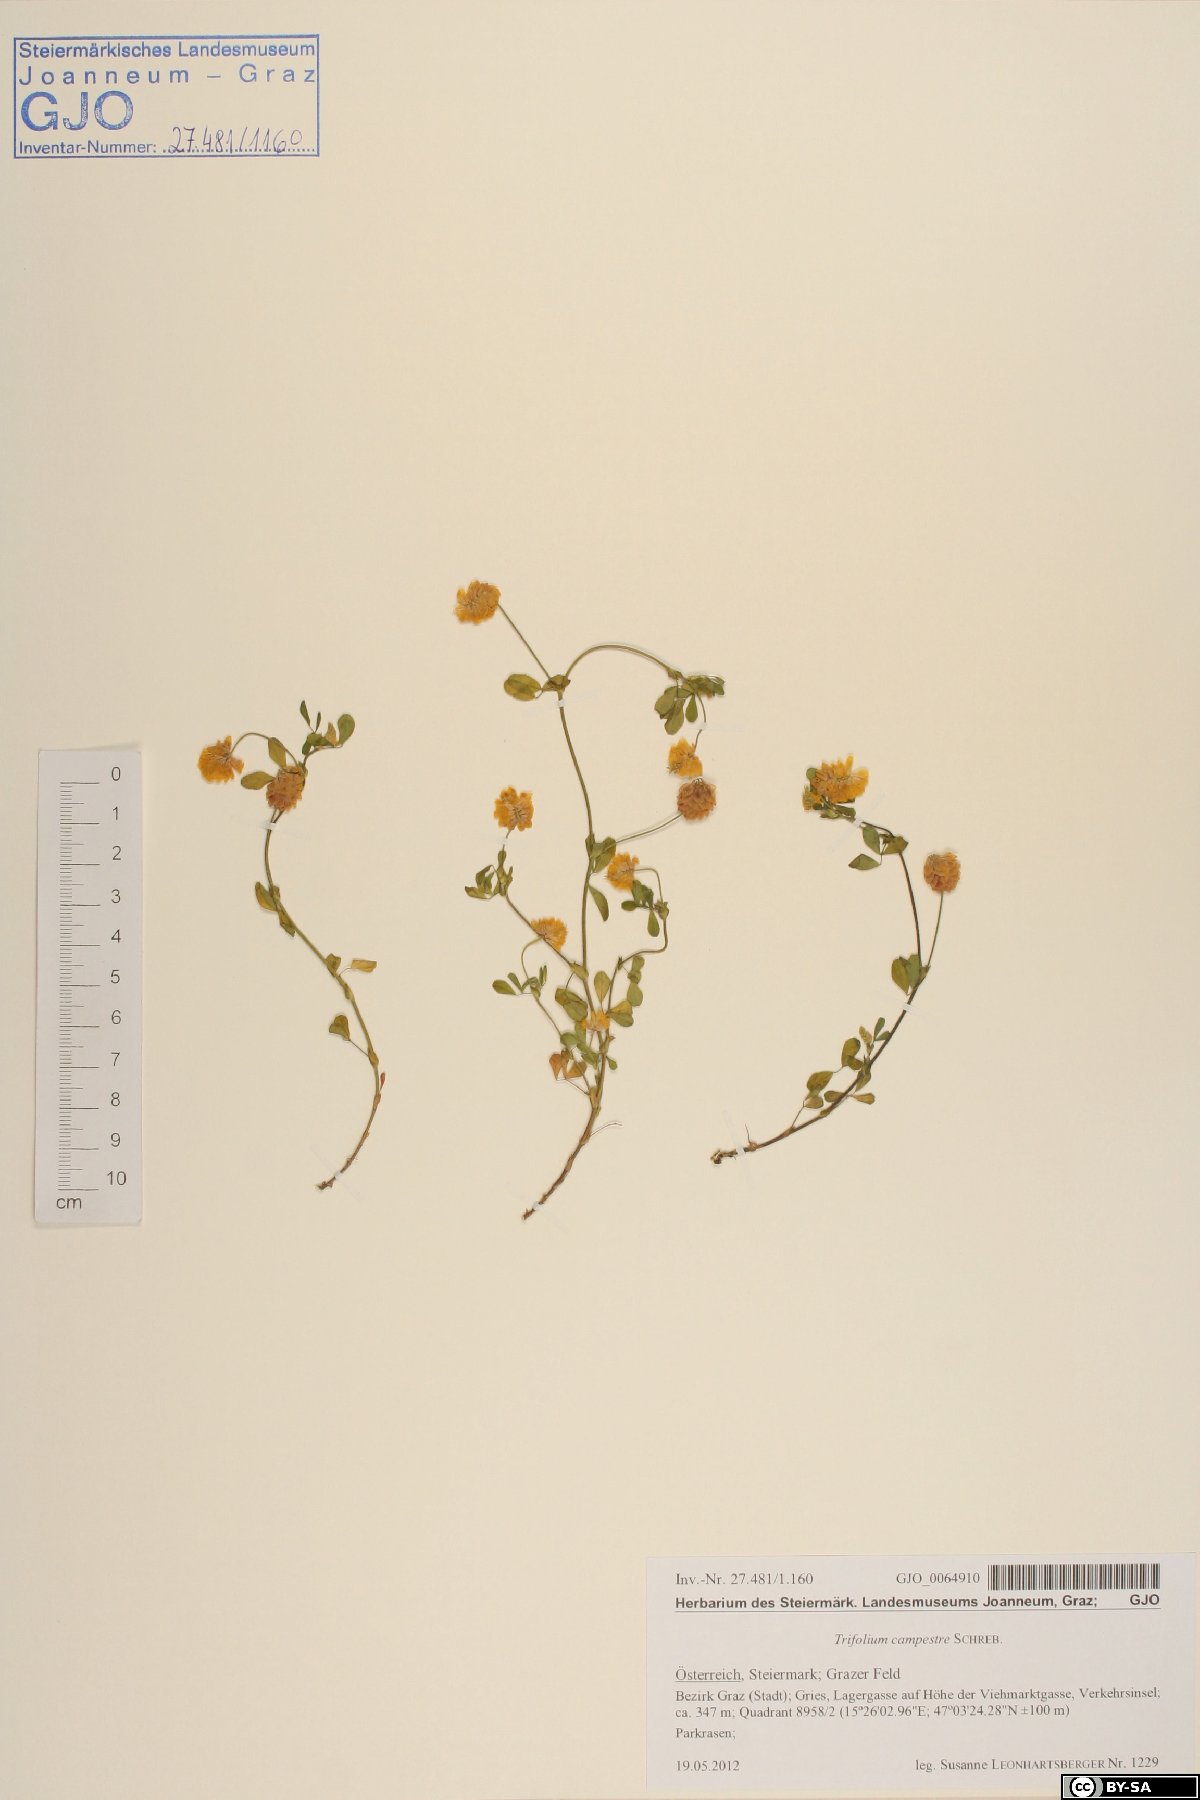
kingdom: Plantae
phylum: Tracheophyta
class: Magnoliopsida
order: Fabales
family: Fabaceae
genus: Trifolium
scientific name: Trifolium campestre
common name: Field clover
